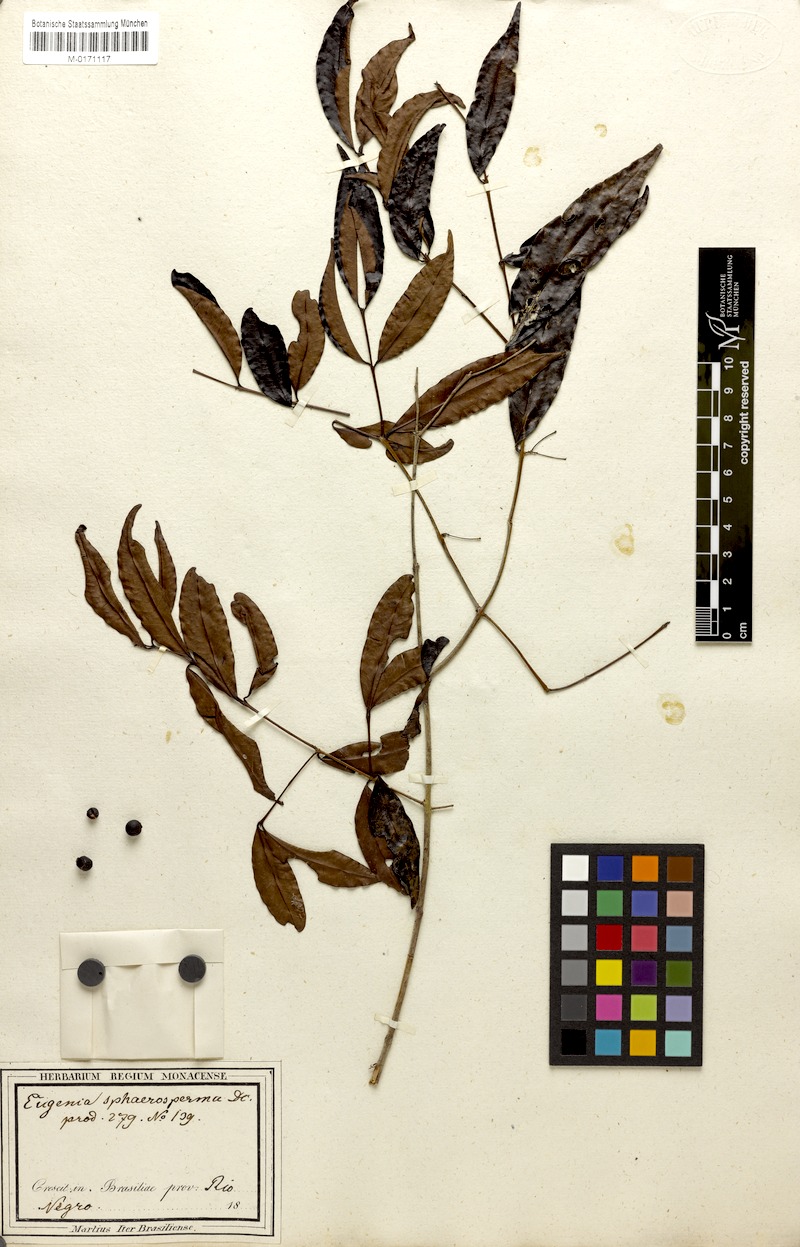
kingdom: Plantae
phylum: Tracheophyta
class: Magnoliopsida
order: Myrtales
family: Myrtaceae
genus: Eugenia
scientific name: Eugenia egensis
